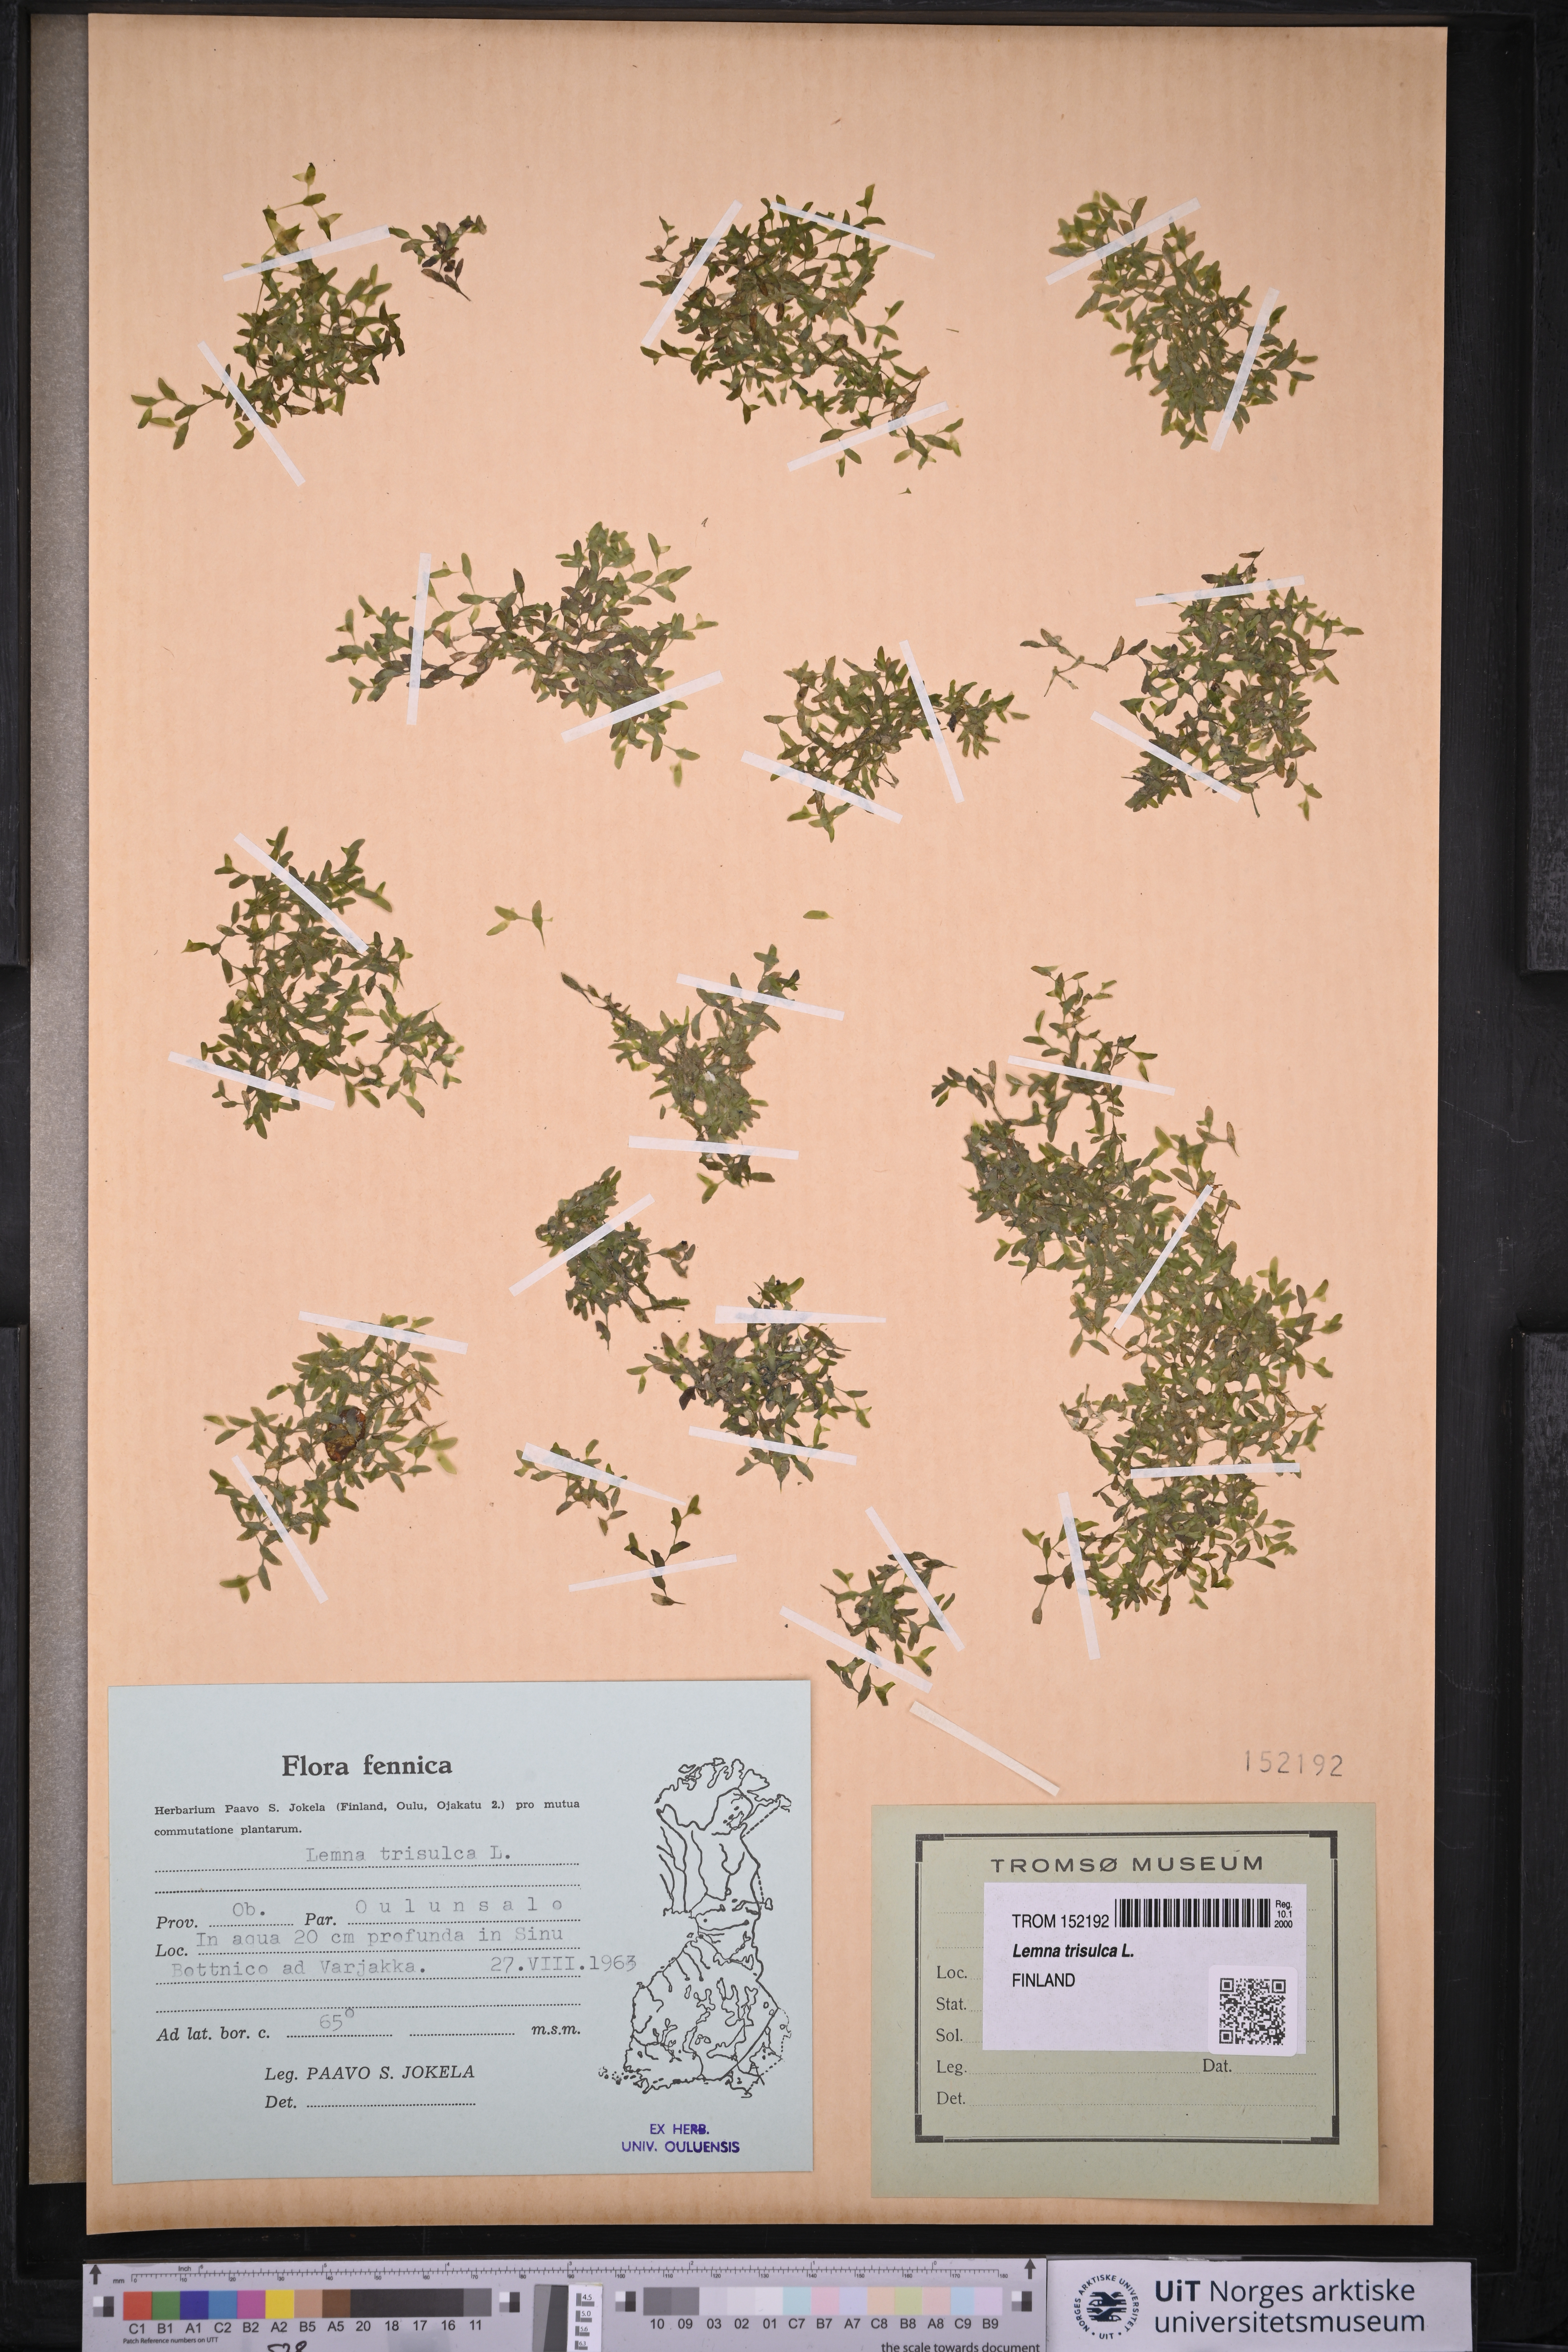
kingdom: Plantae
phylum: Tracheophyta
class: Liliopsida
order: Alismatales
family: Araceae
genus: Lemna
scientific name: Lemna trisulca
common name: Ivy-leaved duckweed
